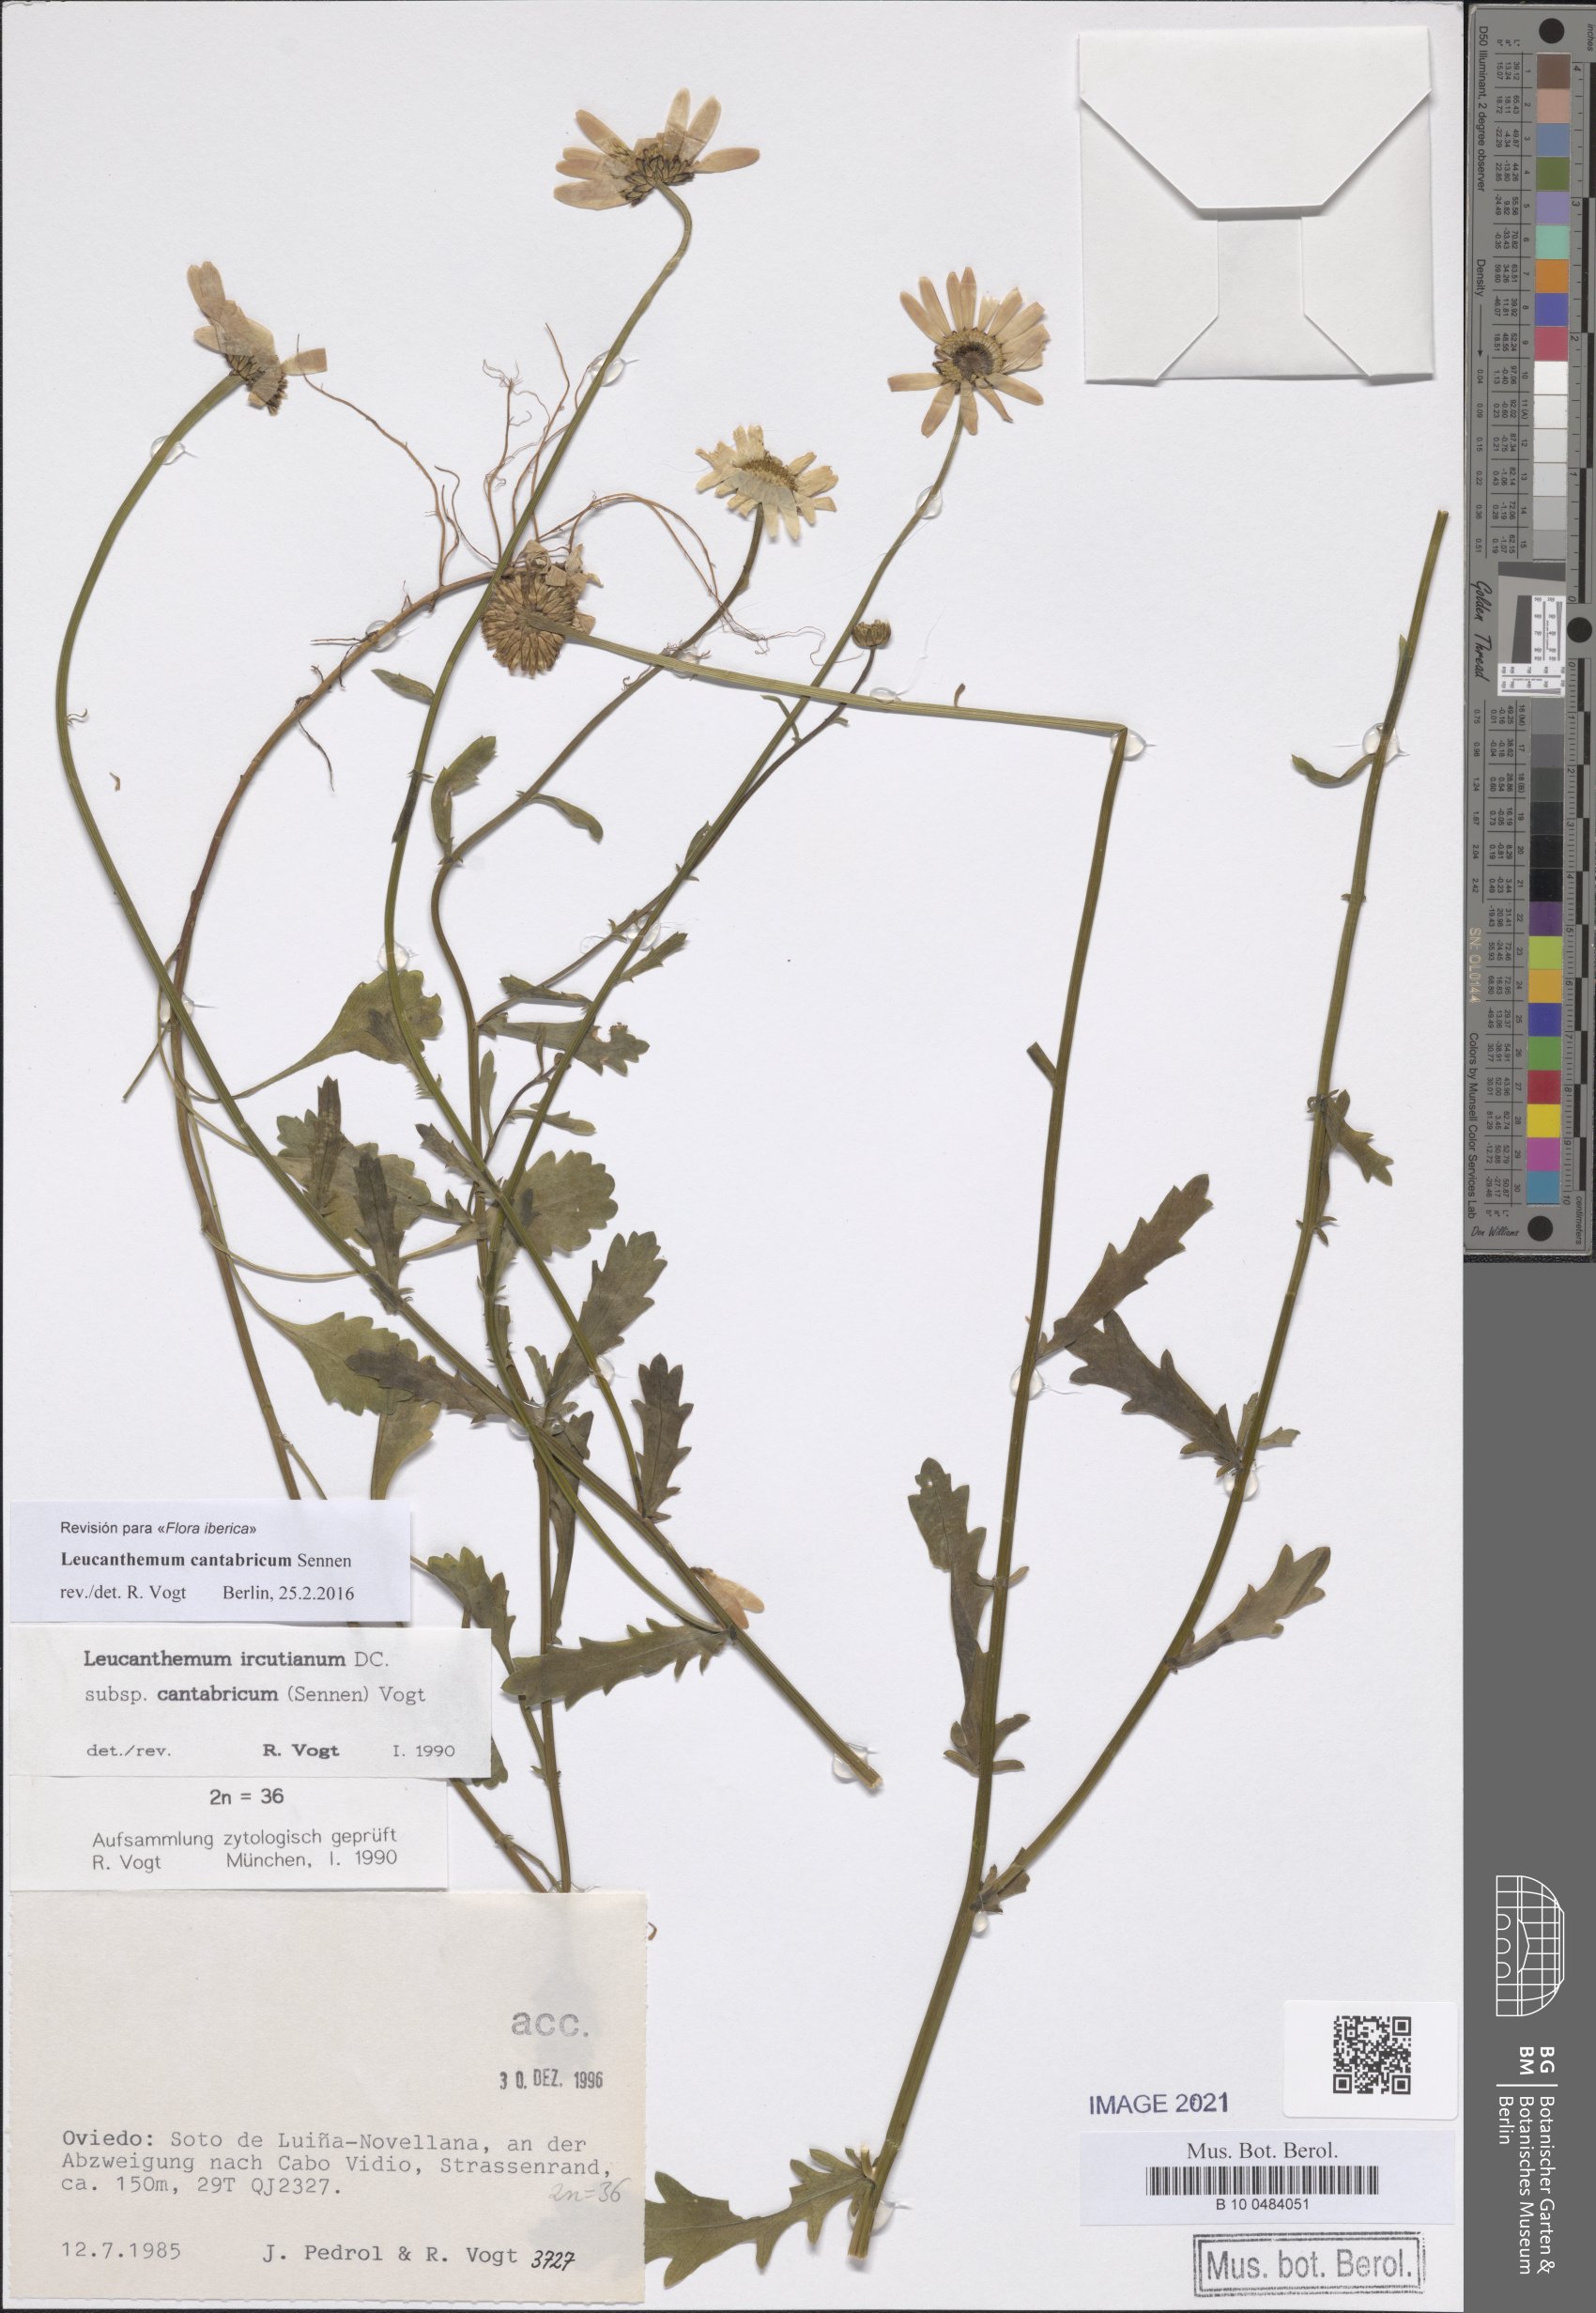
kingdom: Plantae
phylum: Tracheophyta
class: Magnoliopsida
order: Asterales
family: Asteraceae
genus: Leucanthemum
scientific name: Leucanthemum cantabricum
